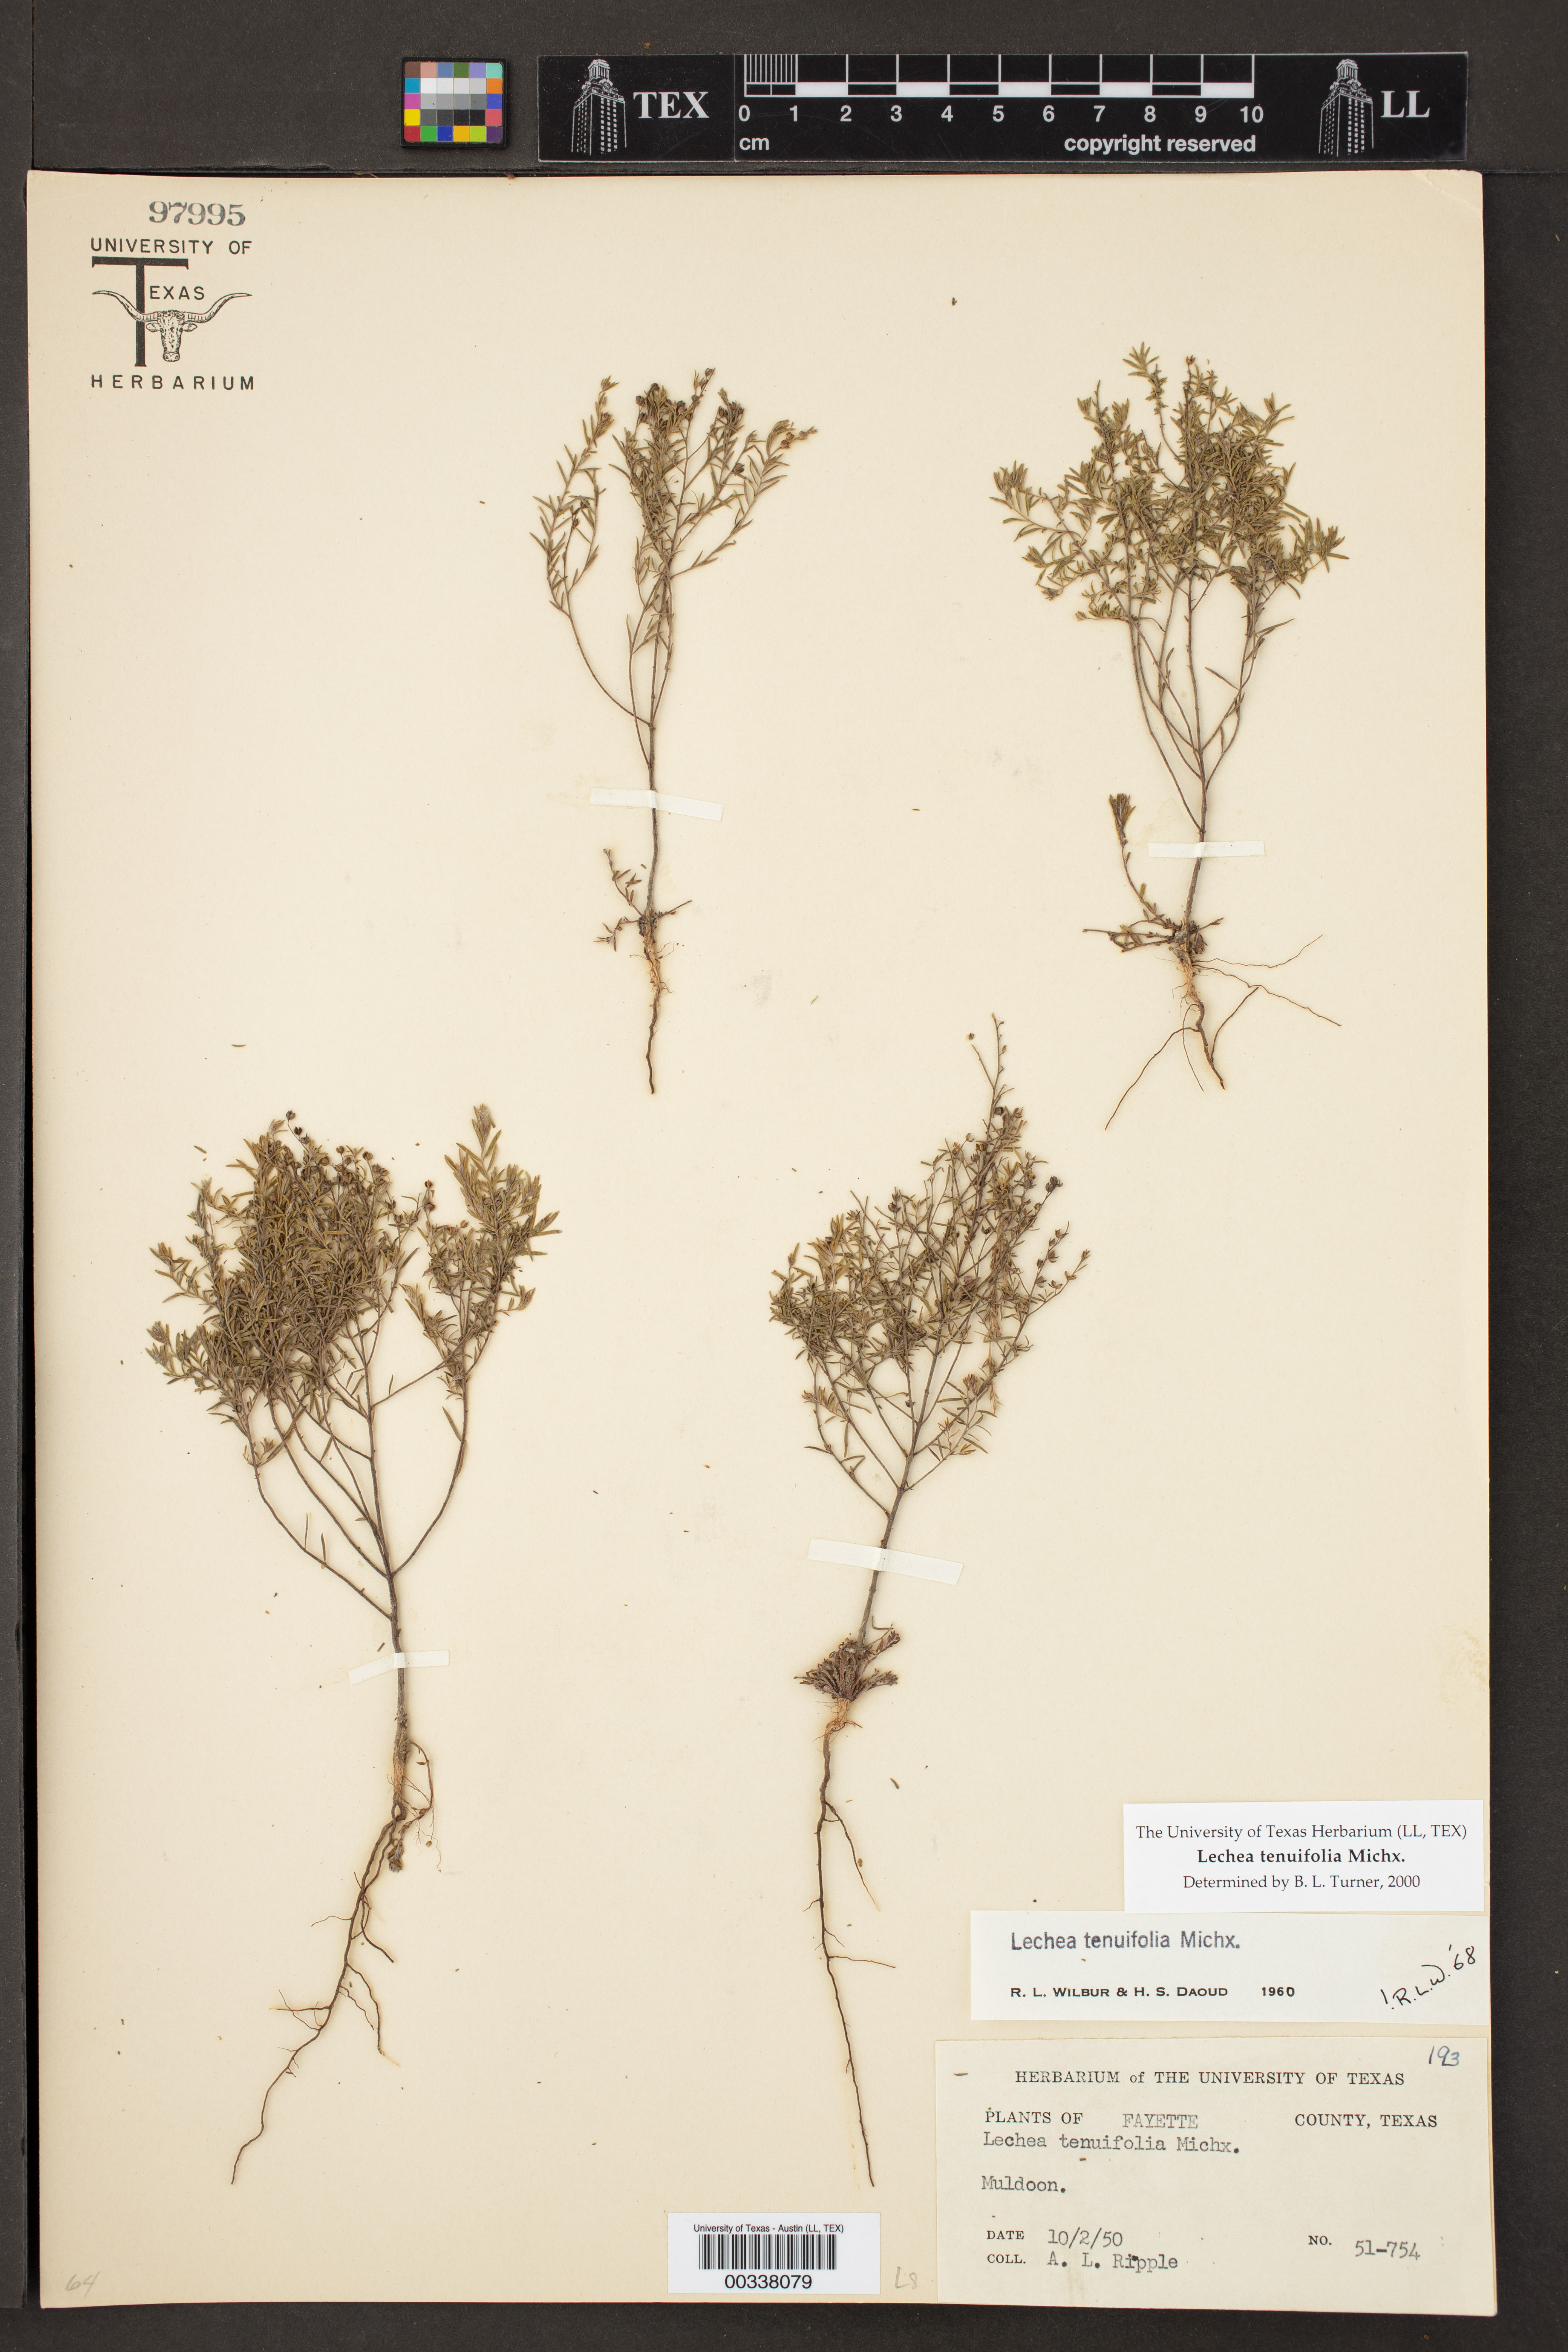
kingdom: Plantae
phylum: Tracheophyta
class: Magnoliopsida
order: Malvales
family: Cistaceae
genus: Lechea
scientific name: Lechea tenuifolia
